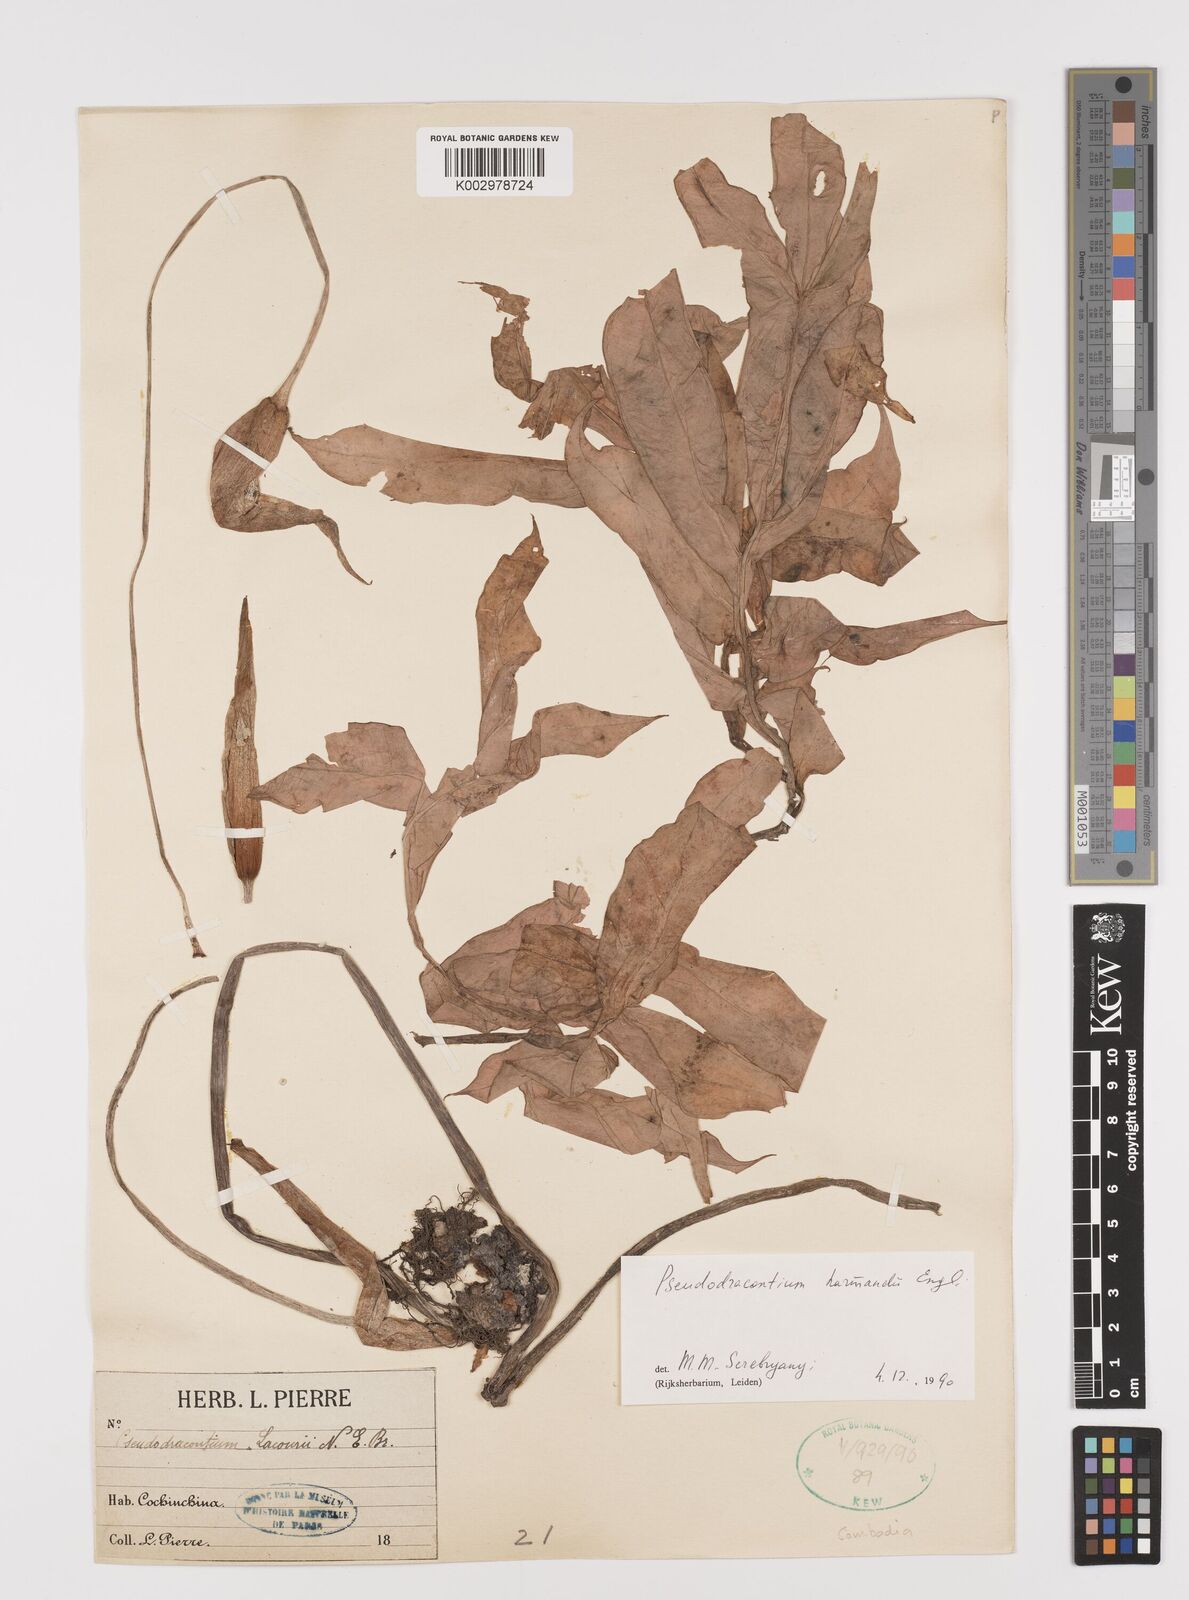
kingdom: Plantae
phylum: Tracheophyta
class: Liliopsida
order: Alismatales
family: Araceae
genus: Amorphophallus
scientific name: Amorphophallus harmandii
